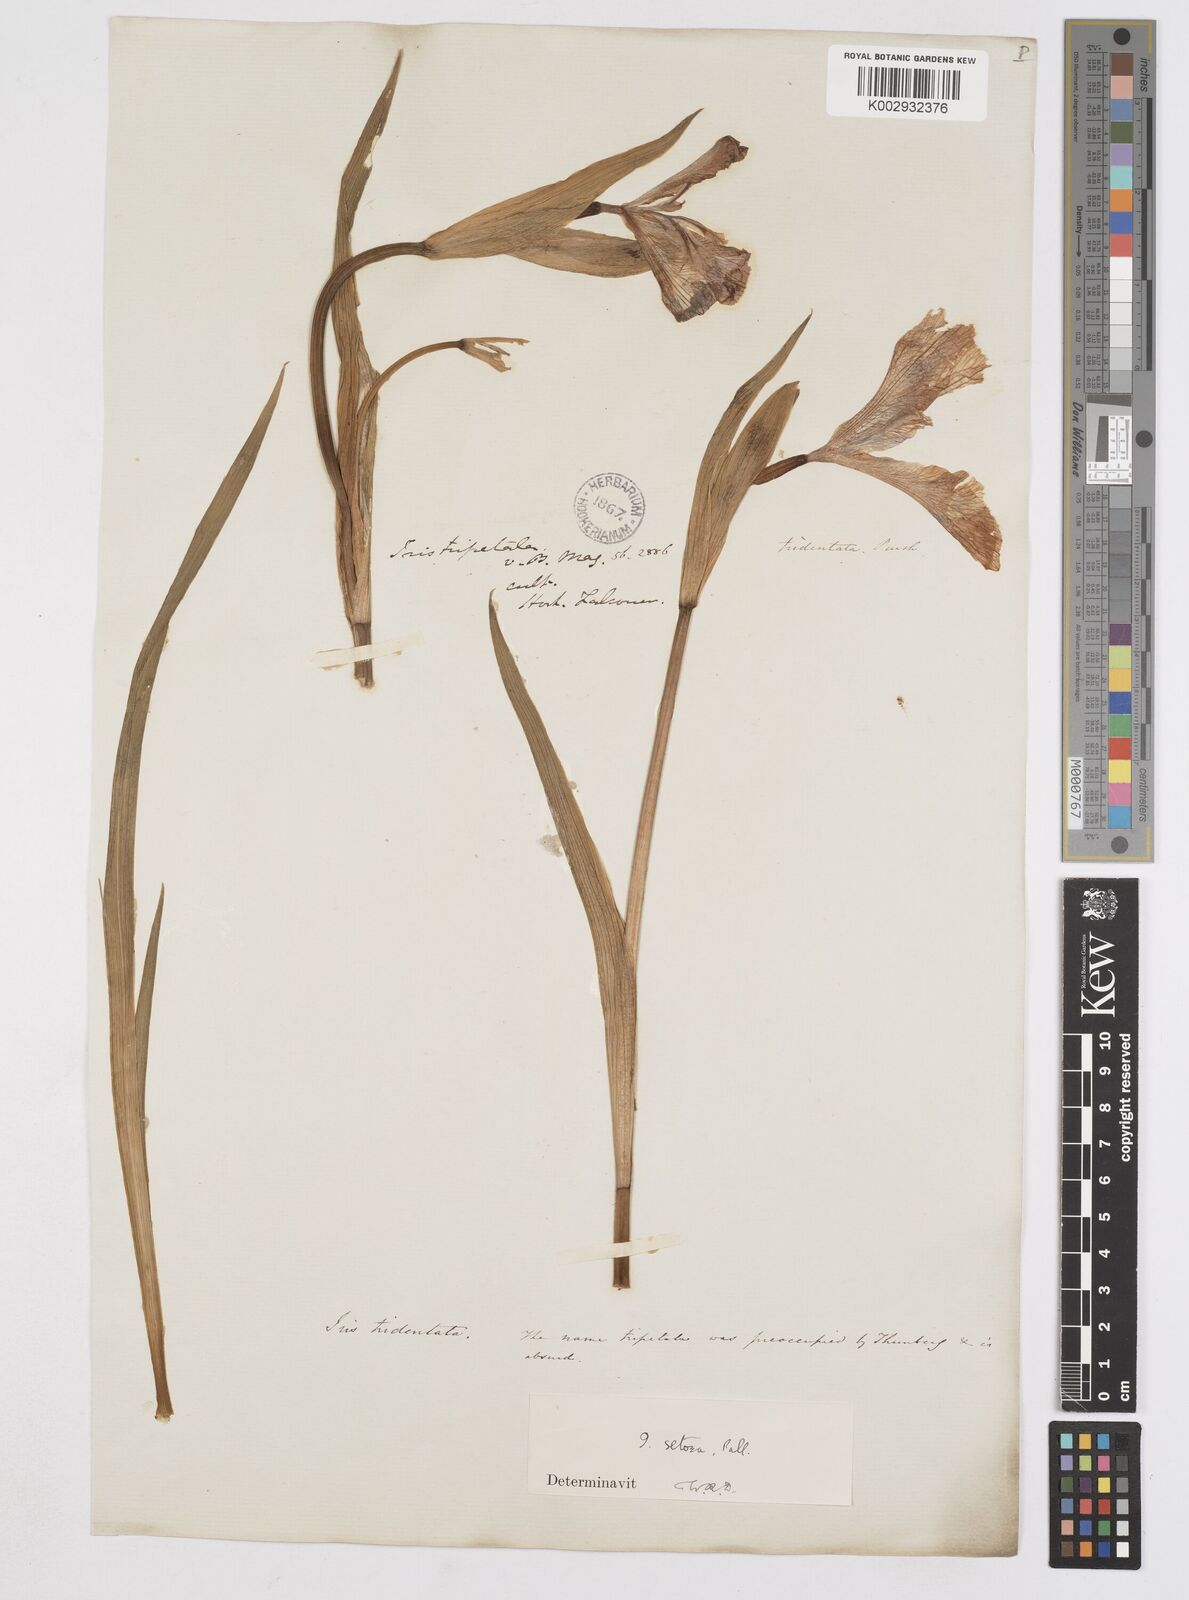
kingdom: Plantae
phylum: Tracheophyta
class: Liliopsida
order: Asparagales
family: Iridaceae
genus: Iris
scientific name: Iris setosa
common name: Arctic blue flag
